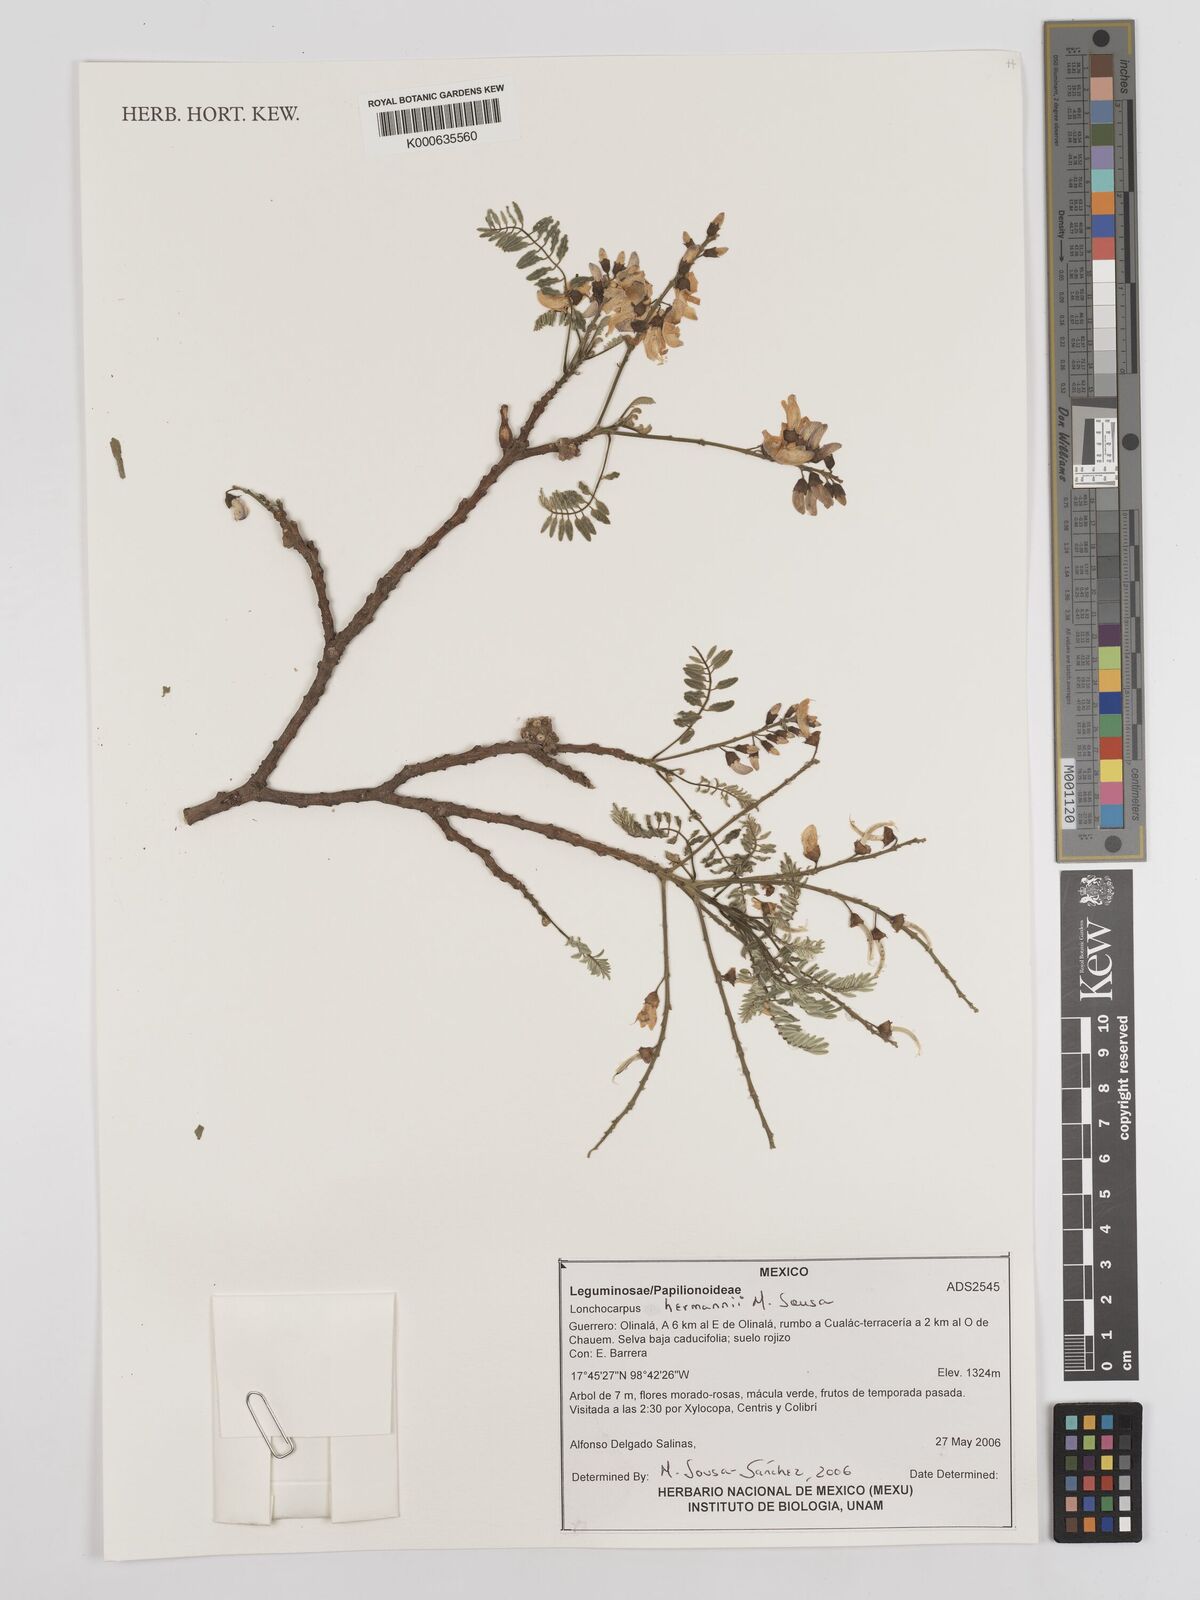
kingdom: Plantae
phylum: Tracheophyta
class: Magnoliopsida
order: Fabales
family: Fabaceae
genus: Lonchocarpus
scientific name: Lonchocarpus hermannii
